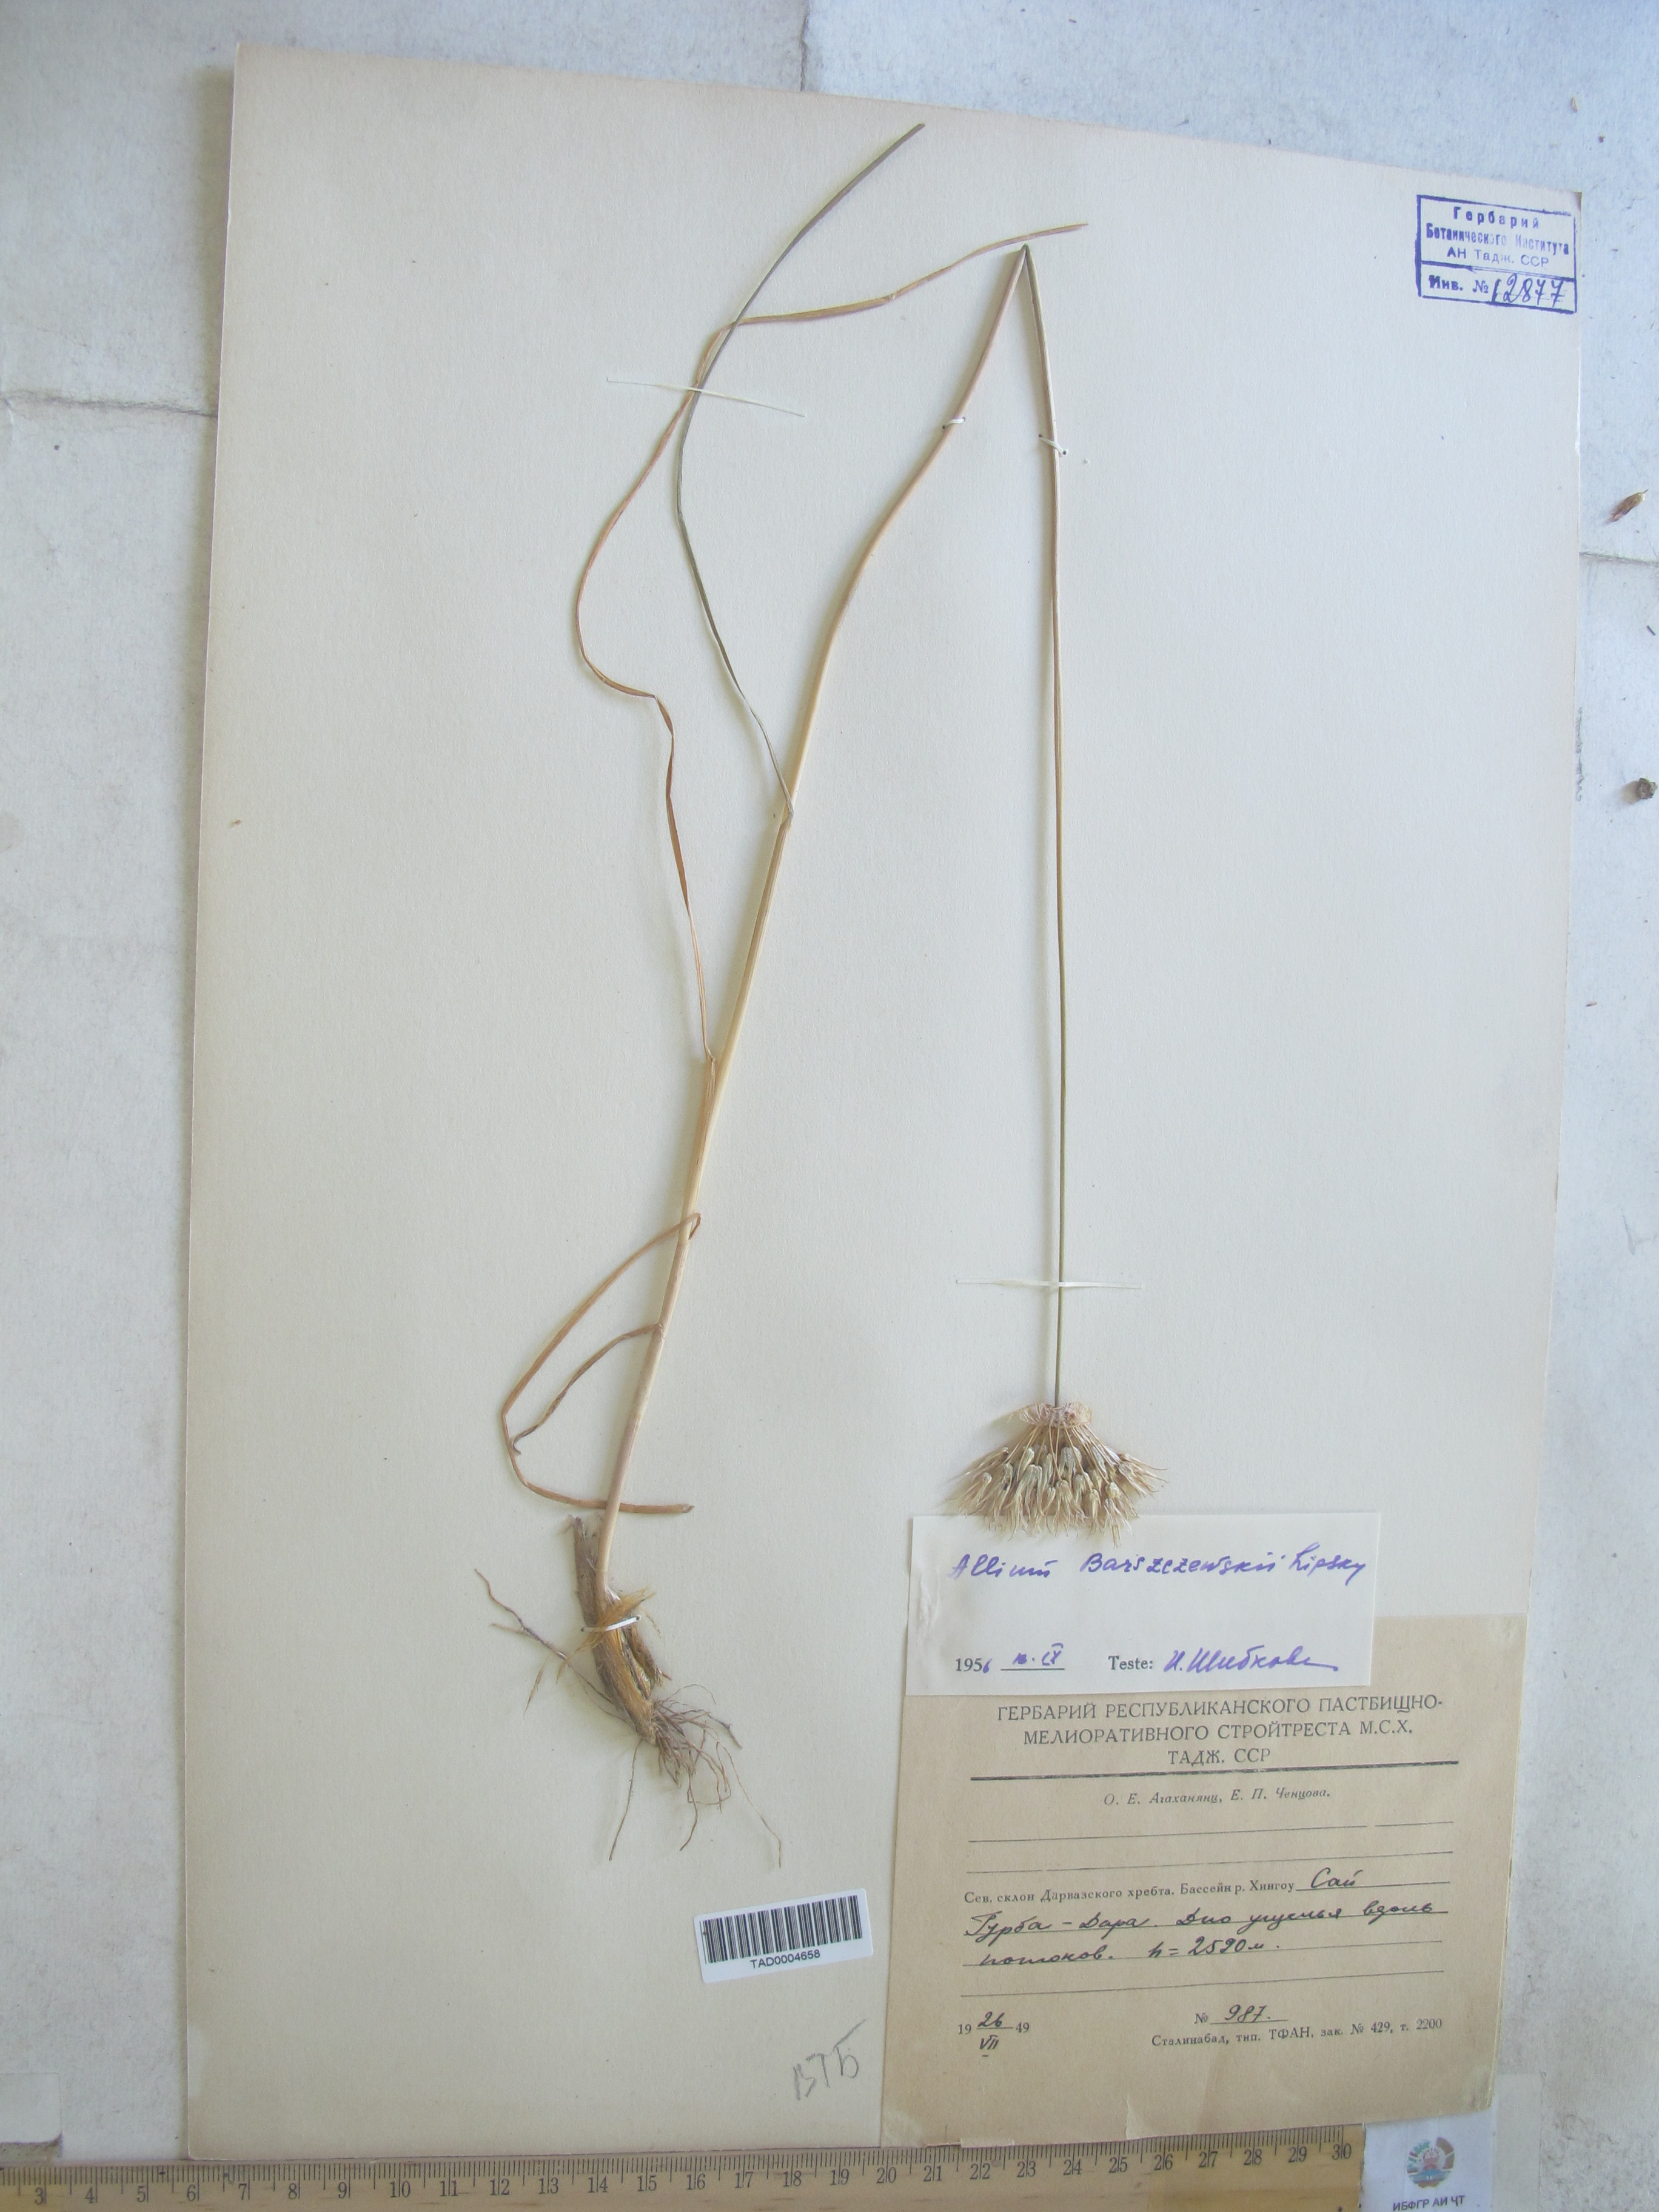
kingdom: Plantae
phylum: Tracheophyta
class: Liliopsida
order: Asparagales
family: Amaryllidaceae
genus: Allium
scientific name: Allium barsczewskii
